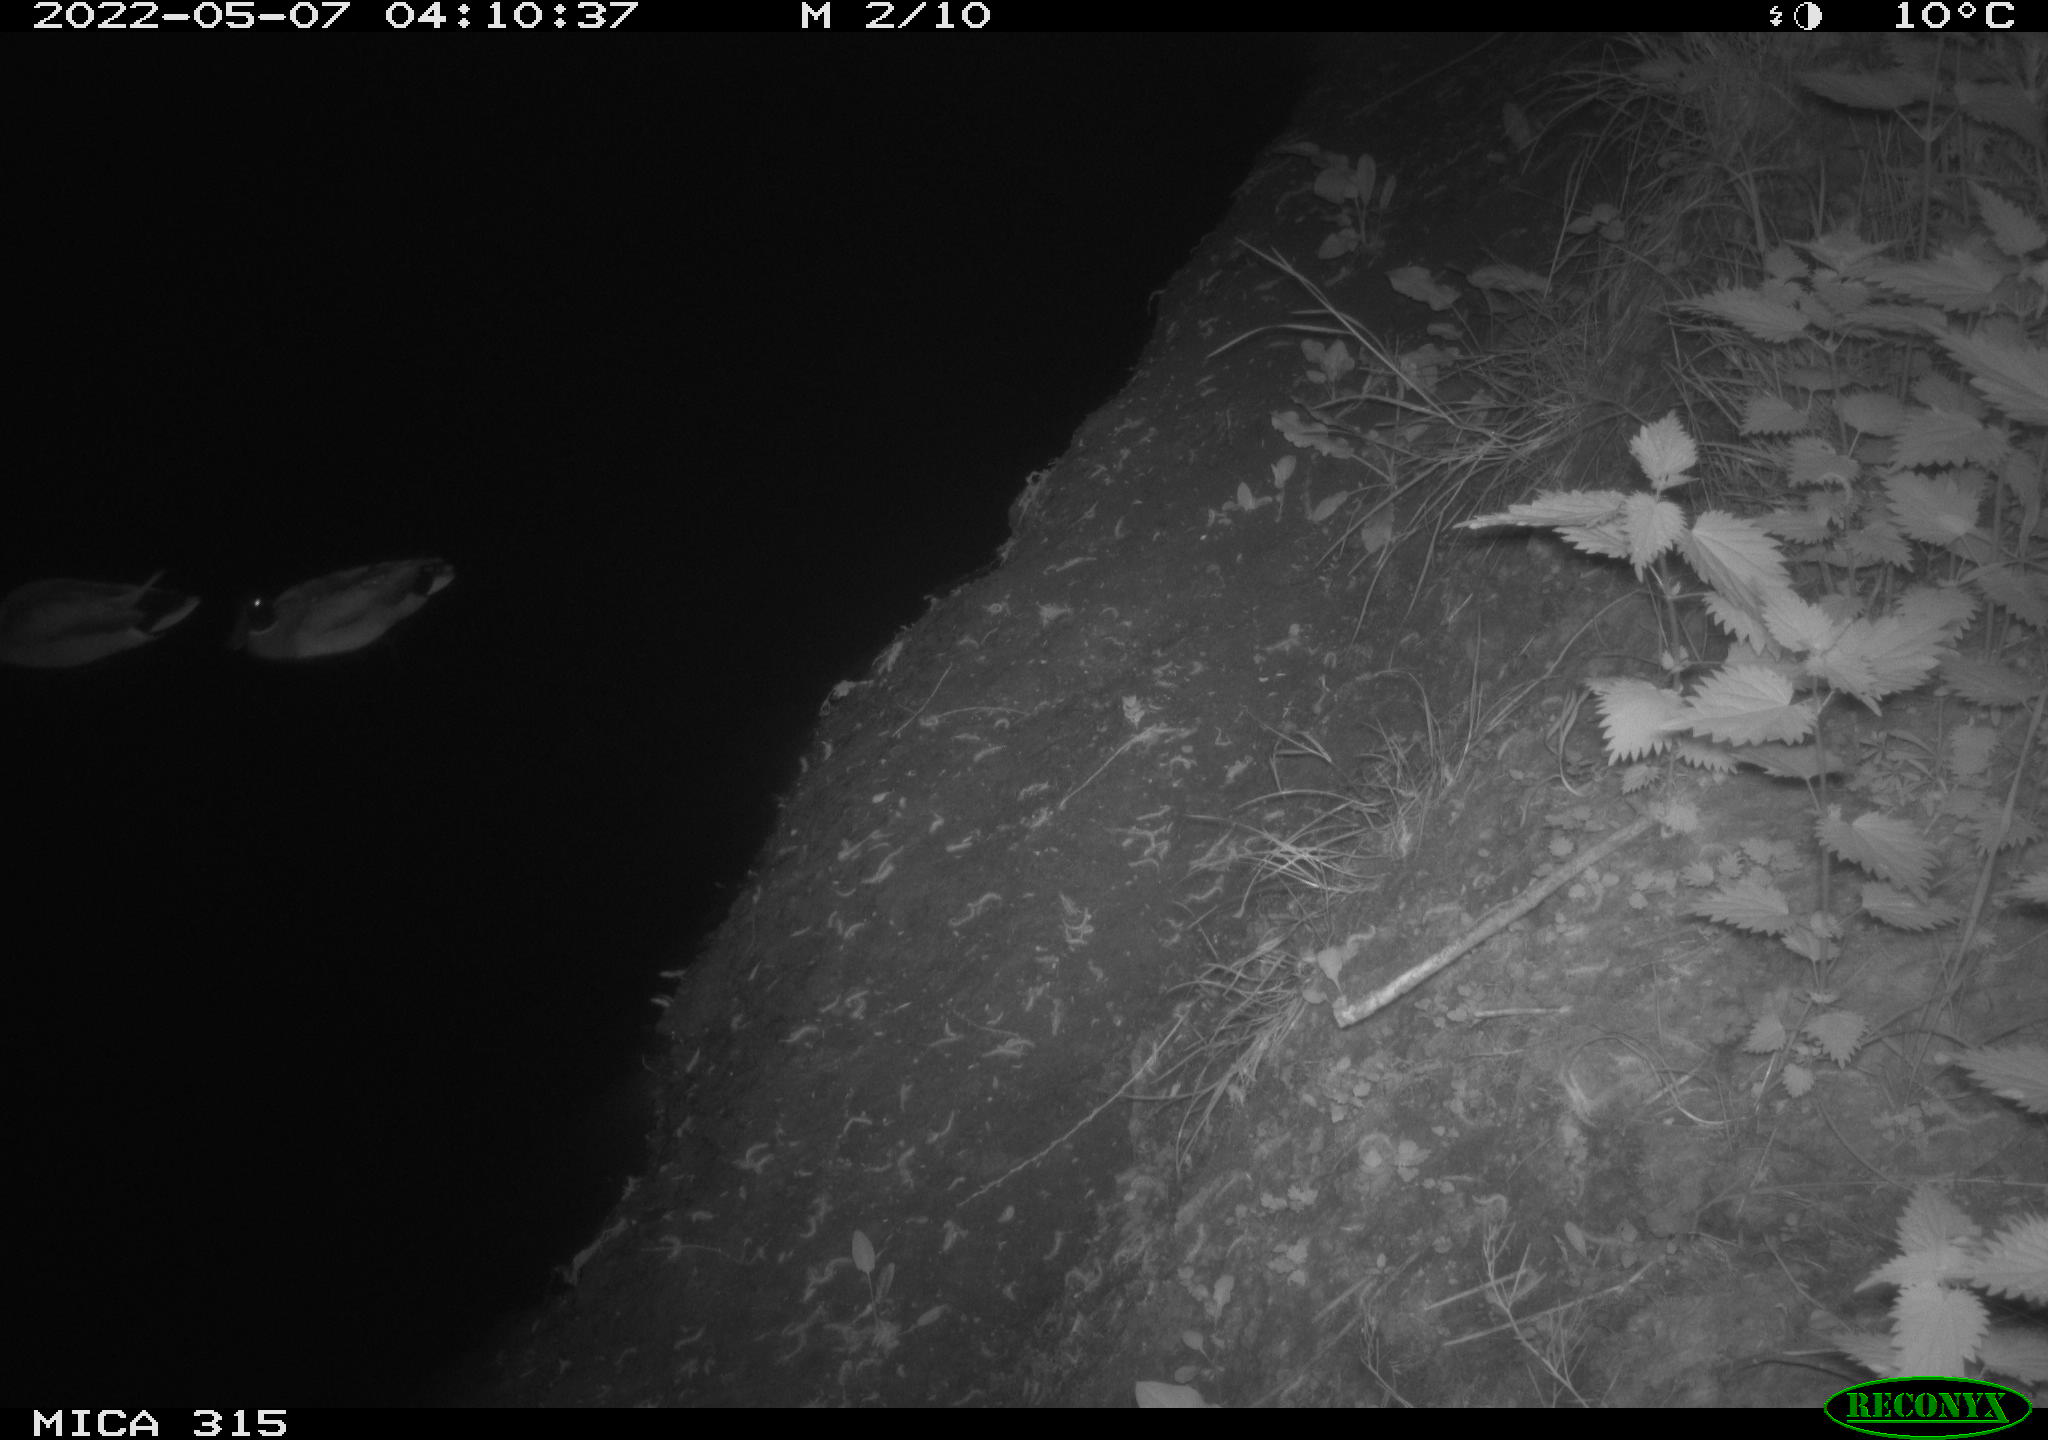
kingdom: Animalia
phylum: Chordata
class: Aves
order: Anseriformes
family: Anatidae
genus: Anas
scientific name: Anas platyrhynchos
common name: Mallard
